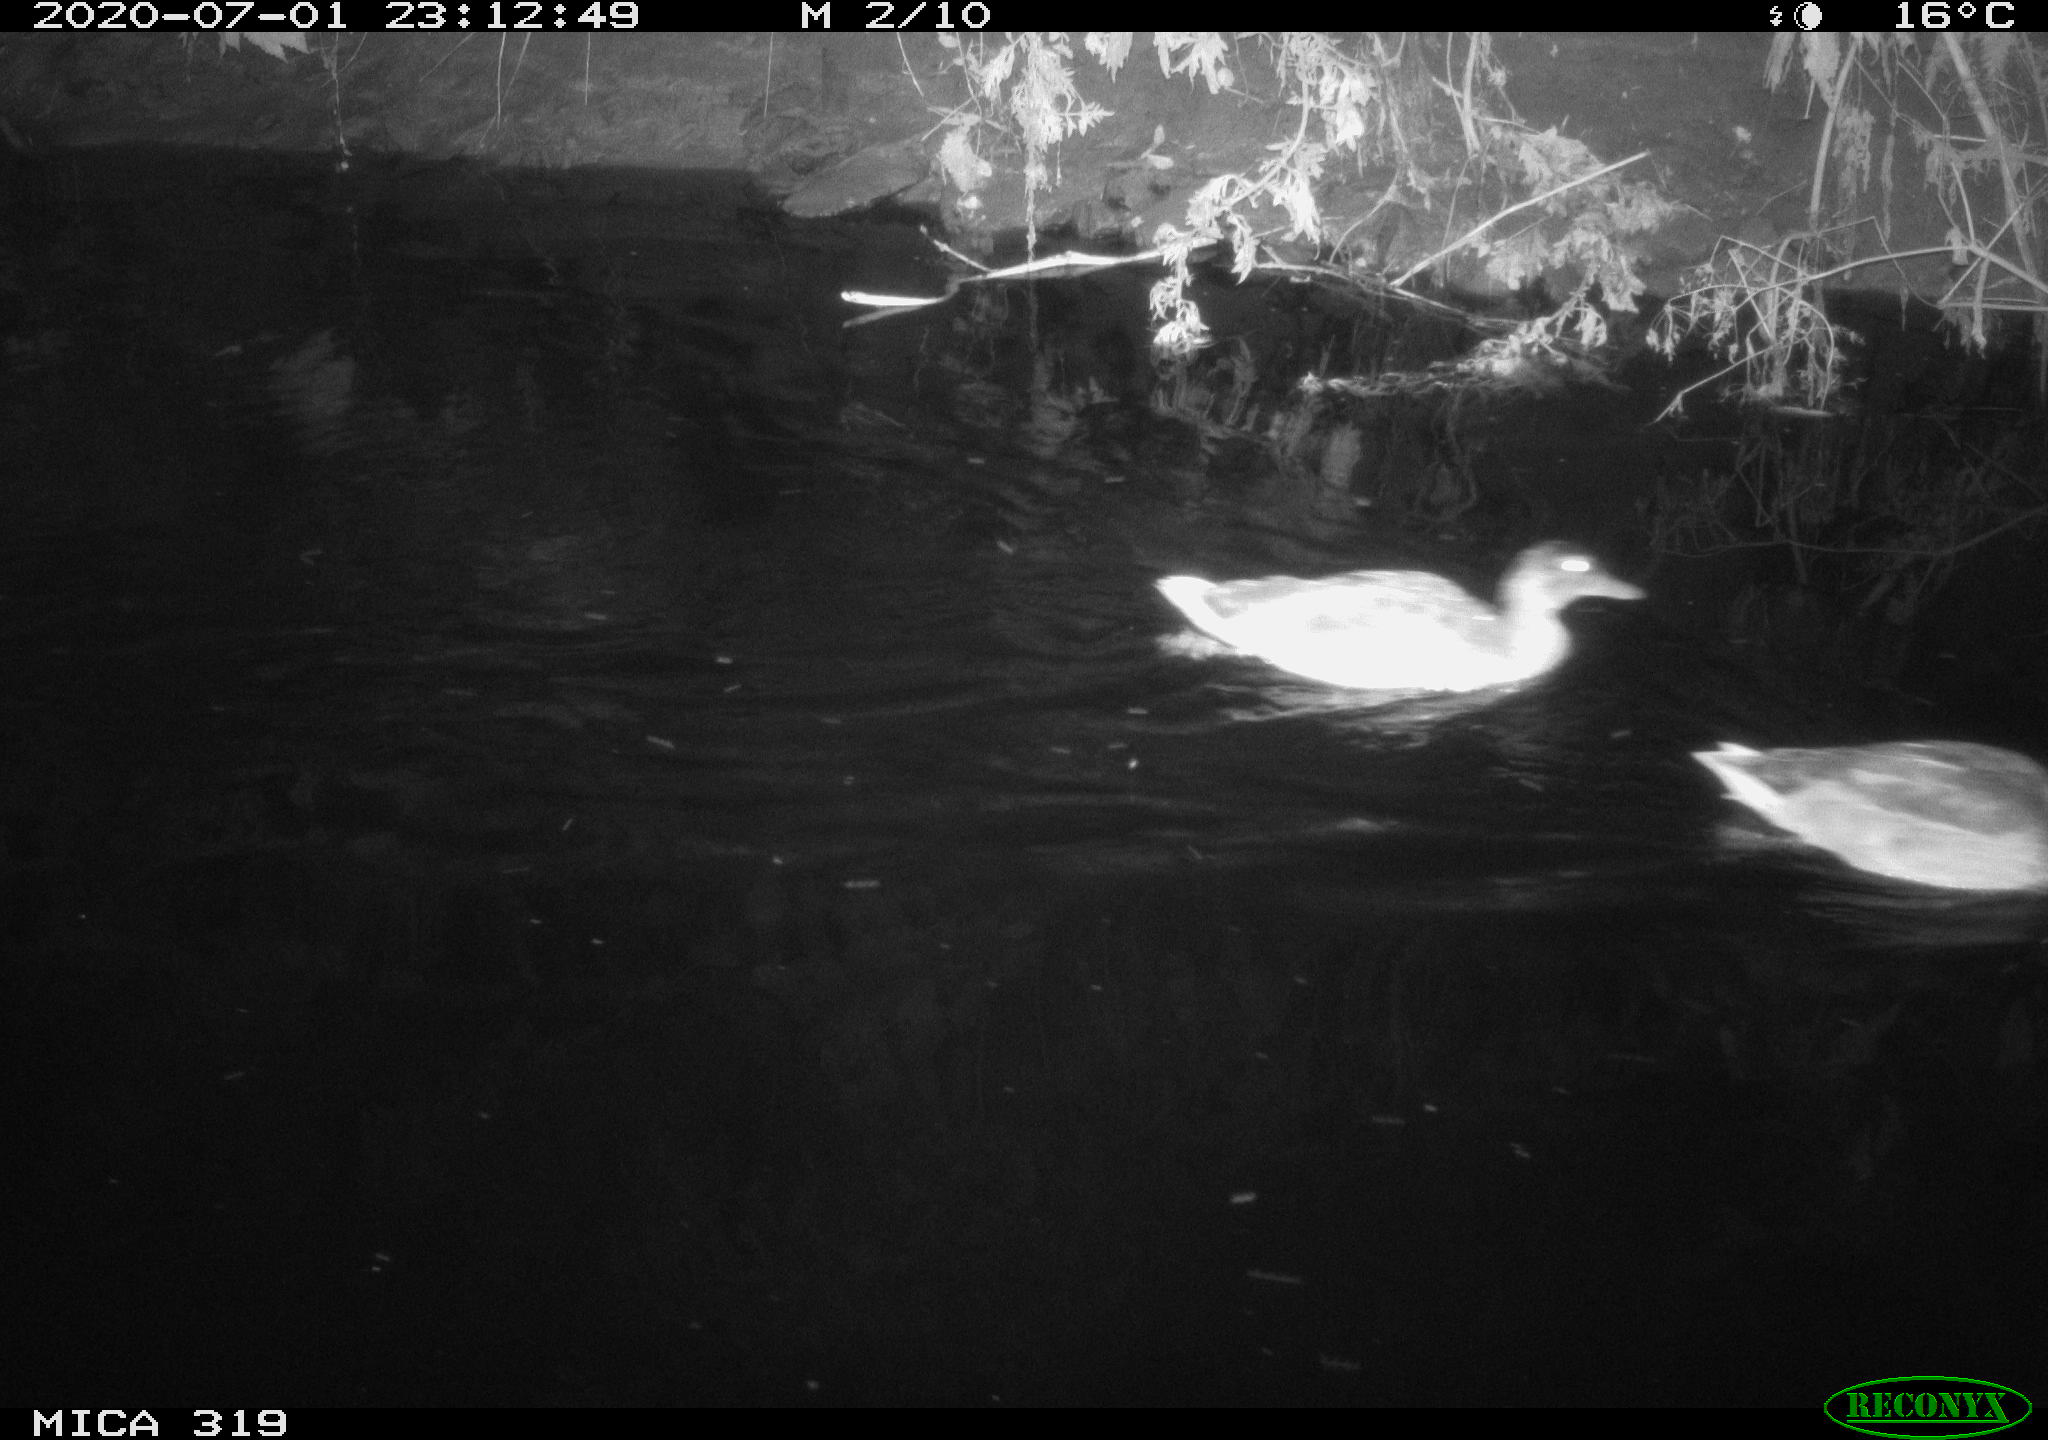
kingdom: Animalia
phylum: Chordata
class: Aves
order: Anseriformes
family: Anatidae
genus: Anas
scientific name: Anas platyrhynchos
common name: Mallard
